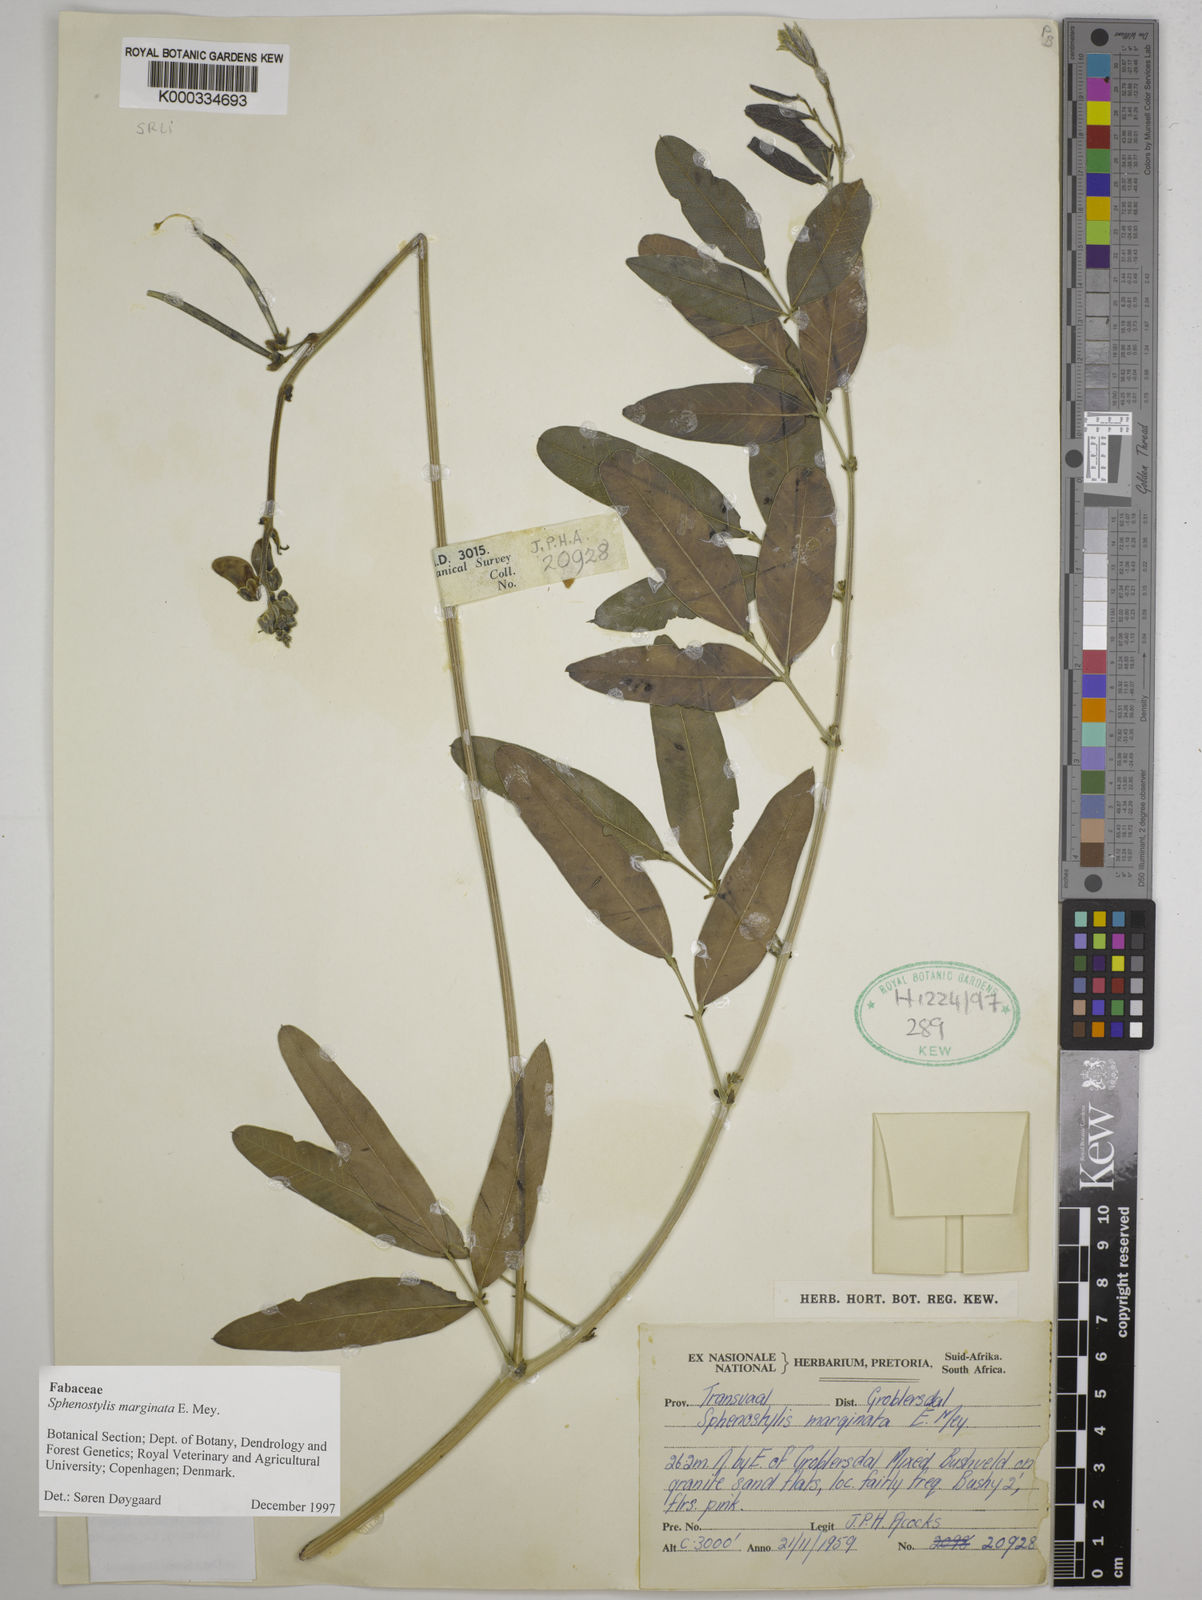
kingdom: Plantae
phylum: Tracheophyta
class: Magnoliopsida
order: Fabales
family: Fabaceae
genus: Sphenostylis
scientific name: Sphenostylis marginata
